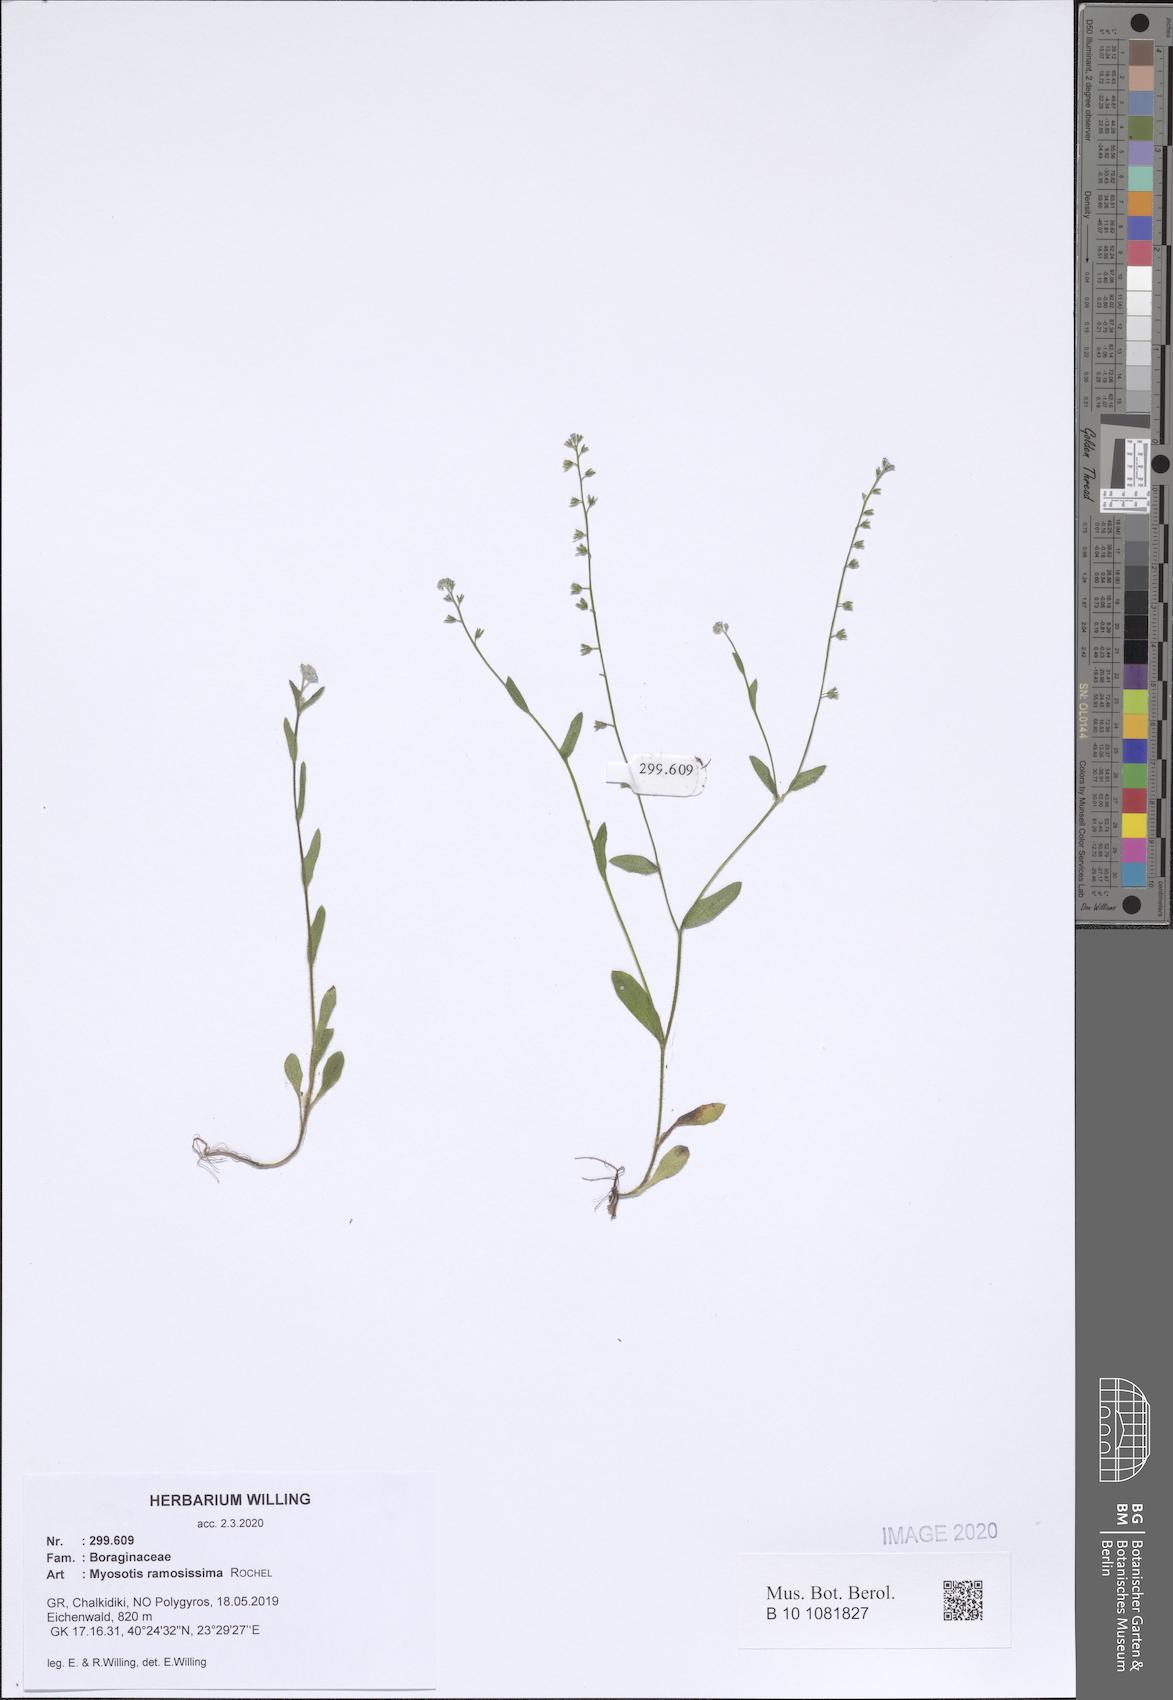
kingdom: Plantae
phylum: Tracheophyta
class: Magnoliopsida
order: Boraginales
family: Boraginaceae
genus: Myosotis
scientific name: Myosotis ramosissima
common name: Early forget-me-not
